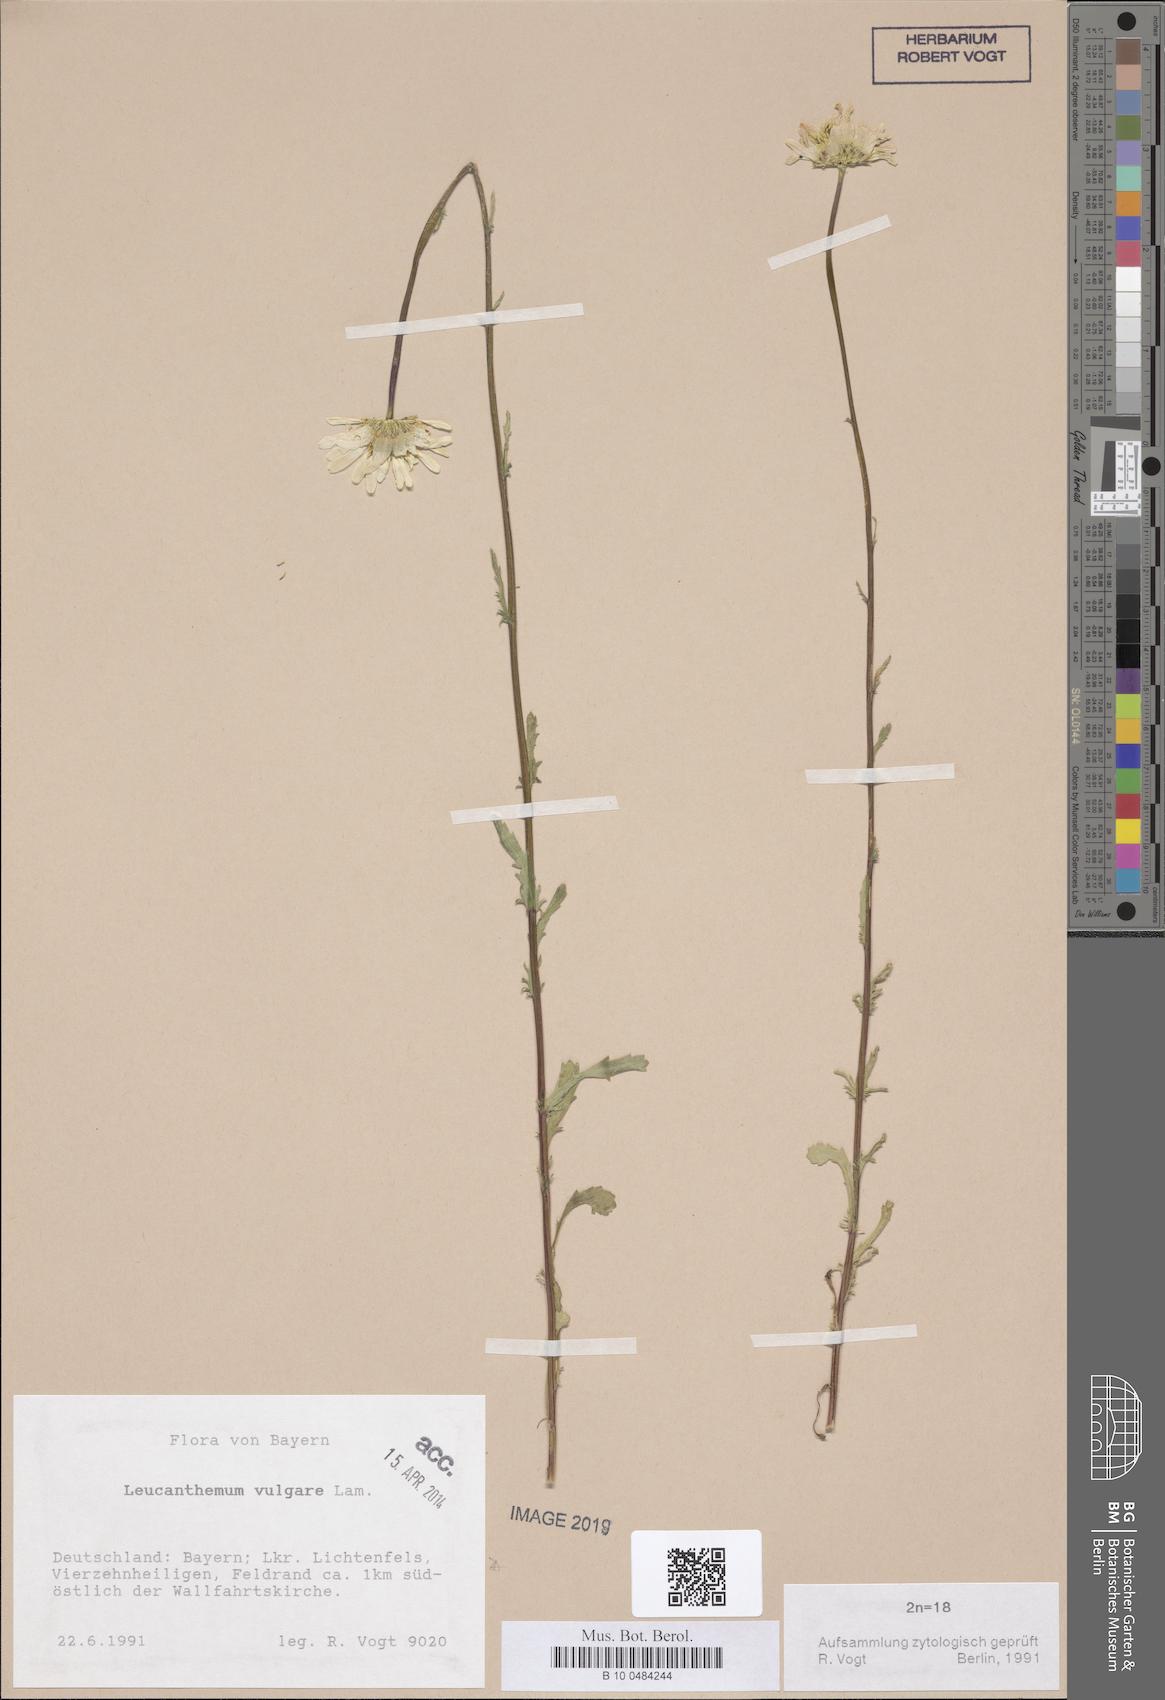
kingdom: Plantae
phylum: Tracheophyta
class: Magnoliopsida
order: Asterales
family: Asteraceae
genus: Leucanthemum
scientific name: Leucanthemum vulgare
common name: Oxeye daisy
